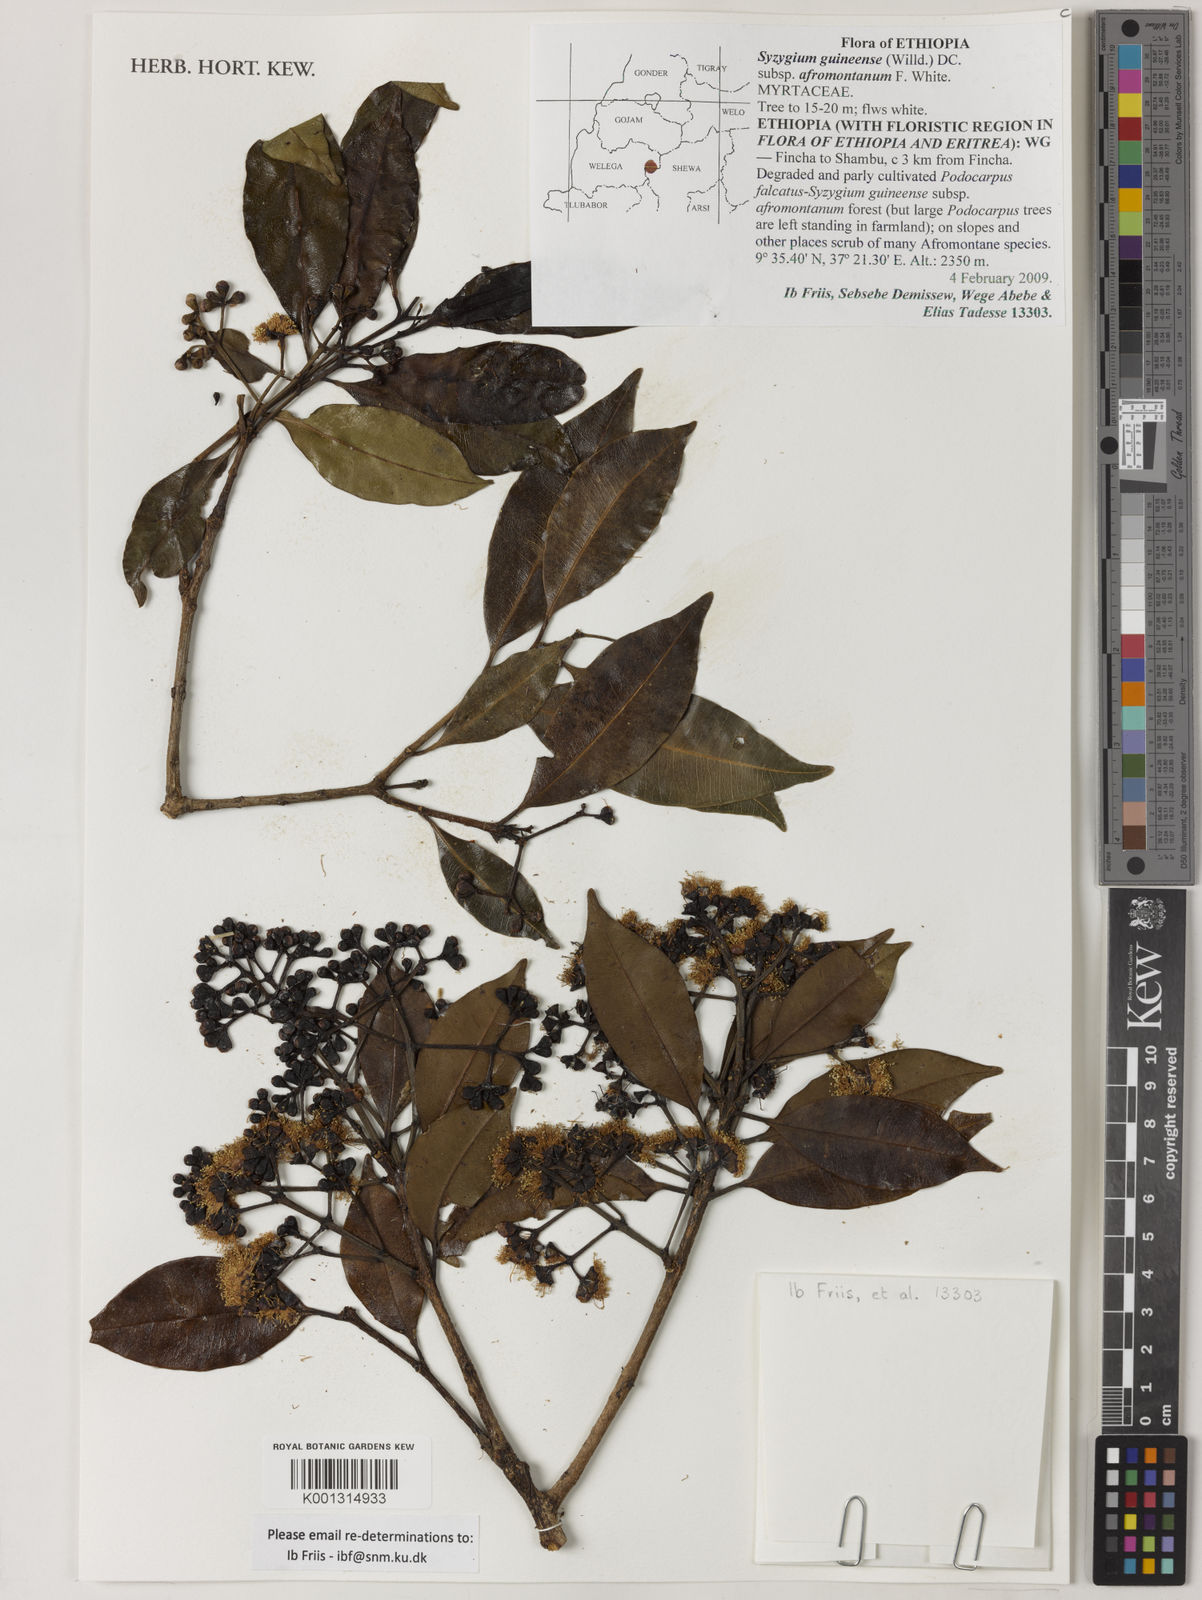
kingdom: Plantae
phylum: Tracheophyta
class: Magnoliopsida
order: Myrtales
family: Myrtaceae
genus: Syzygium
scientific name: Syzygium guineense
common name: Water-pear
